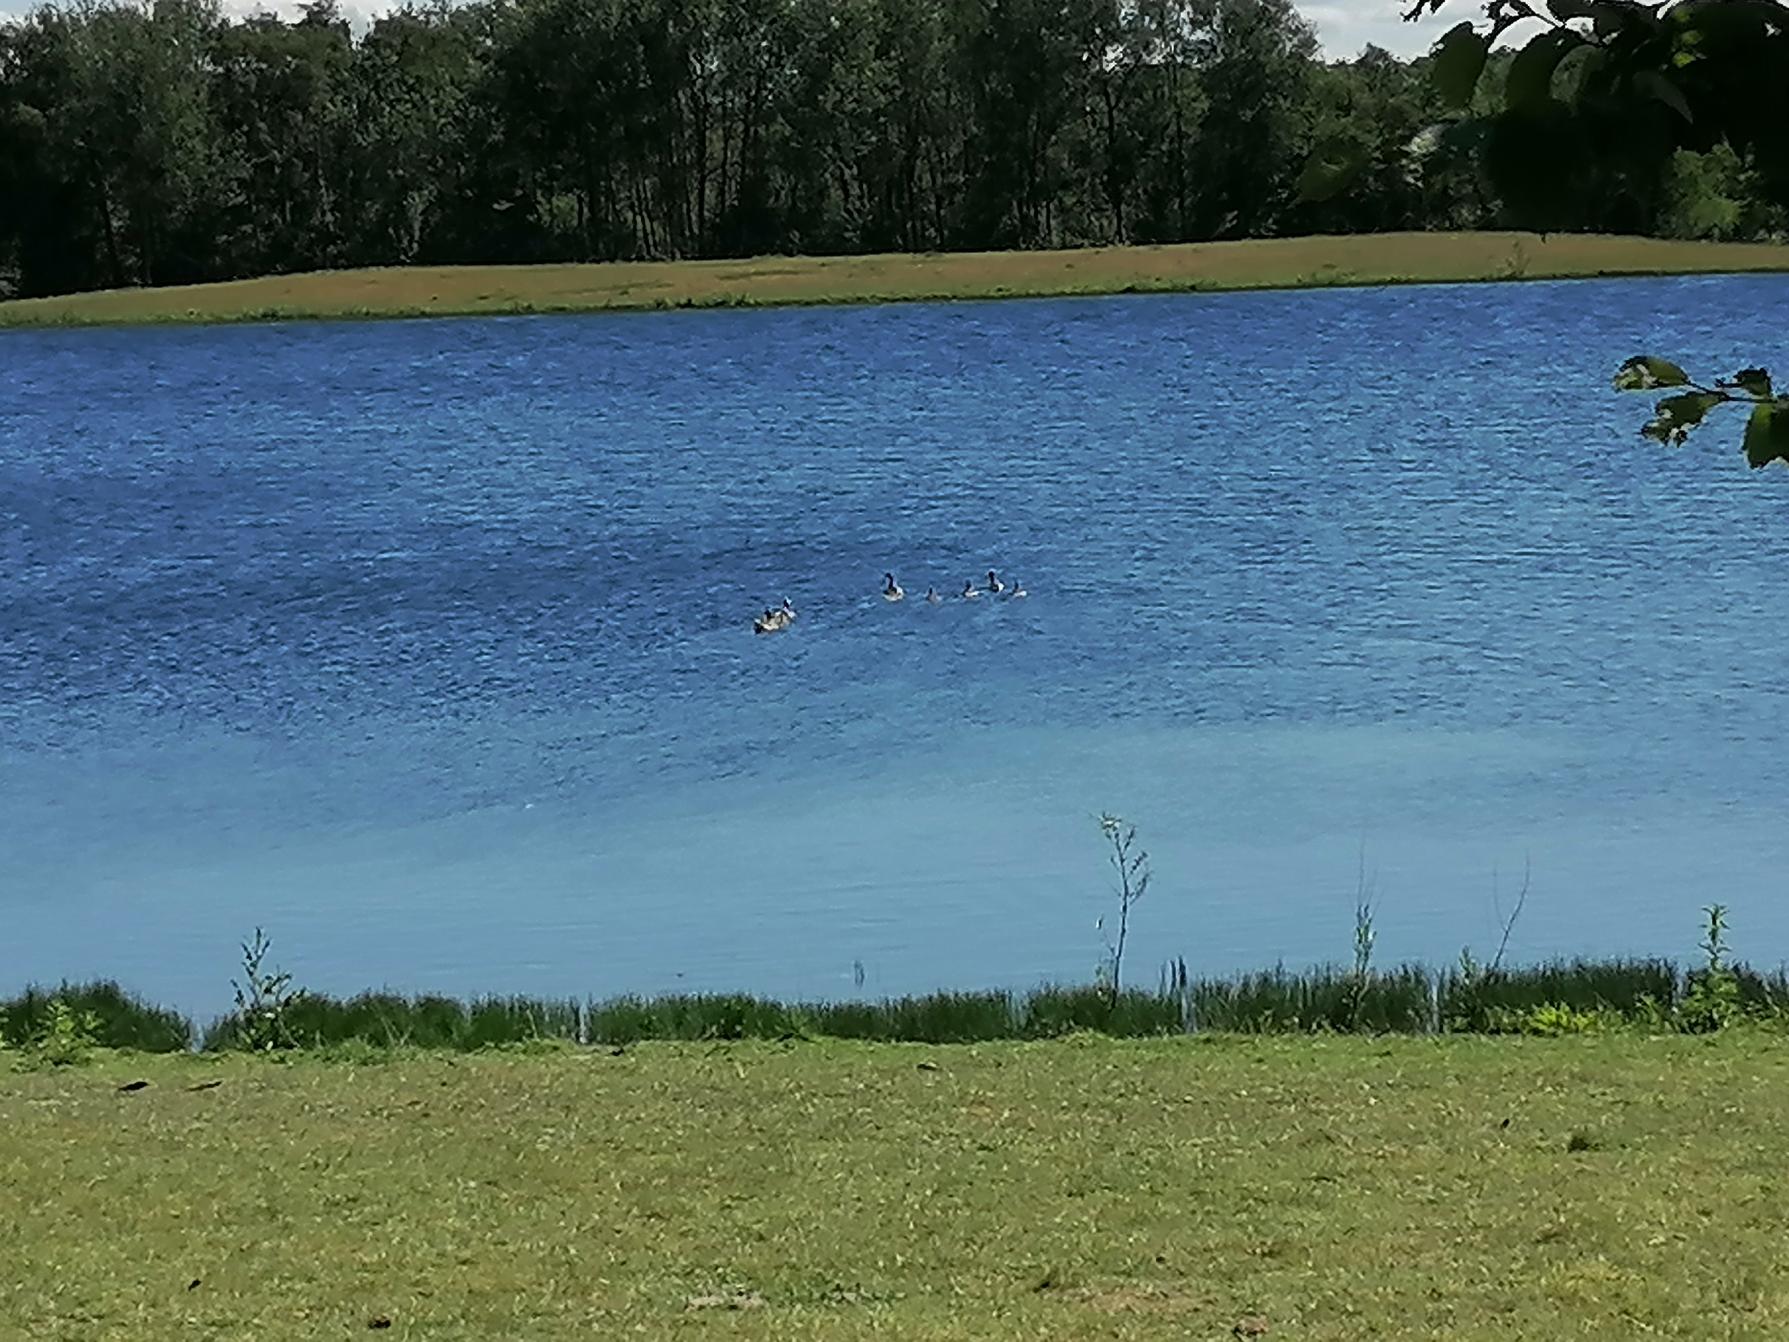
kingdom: Animalia
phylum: Chordata
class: Aves
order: Anseriformes
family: Anatidae
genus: Anser
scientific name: Anser anser
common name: Grågås
